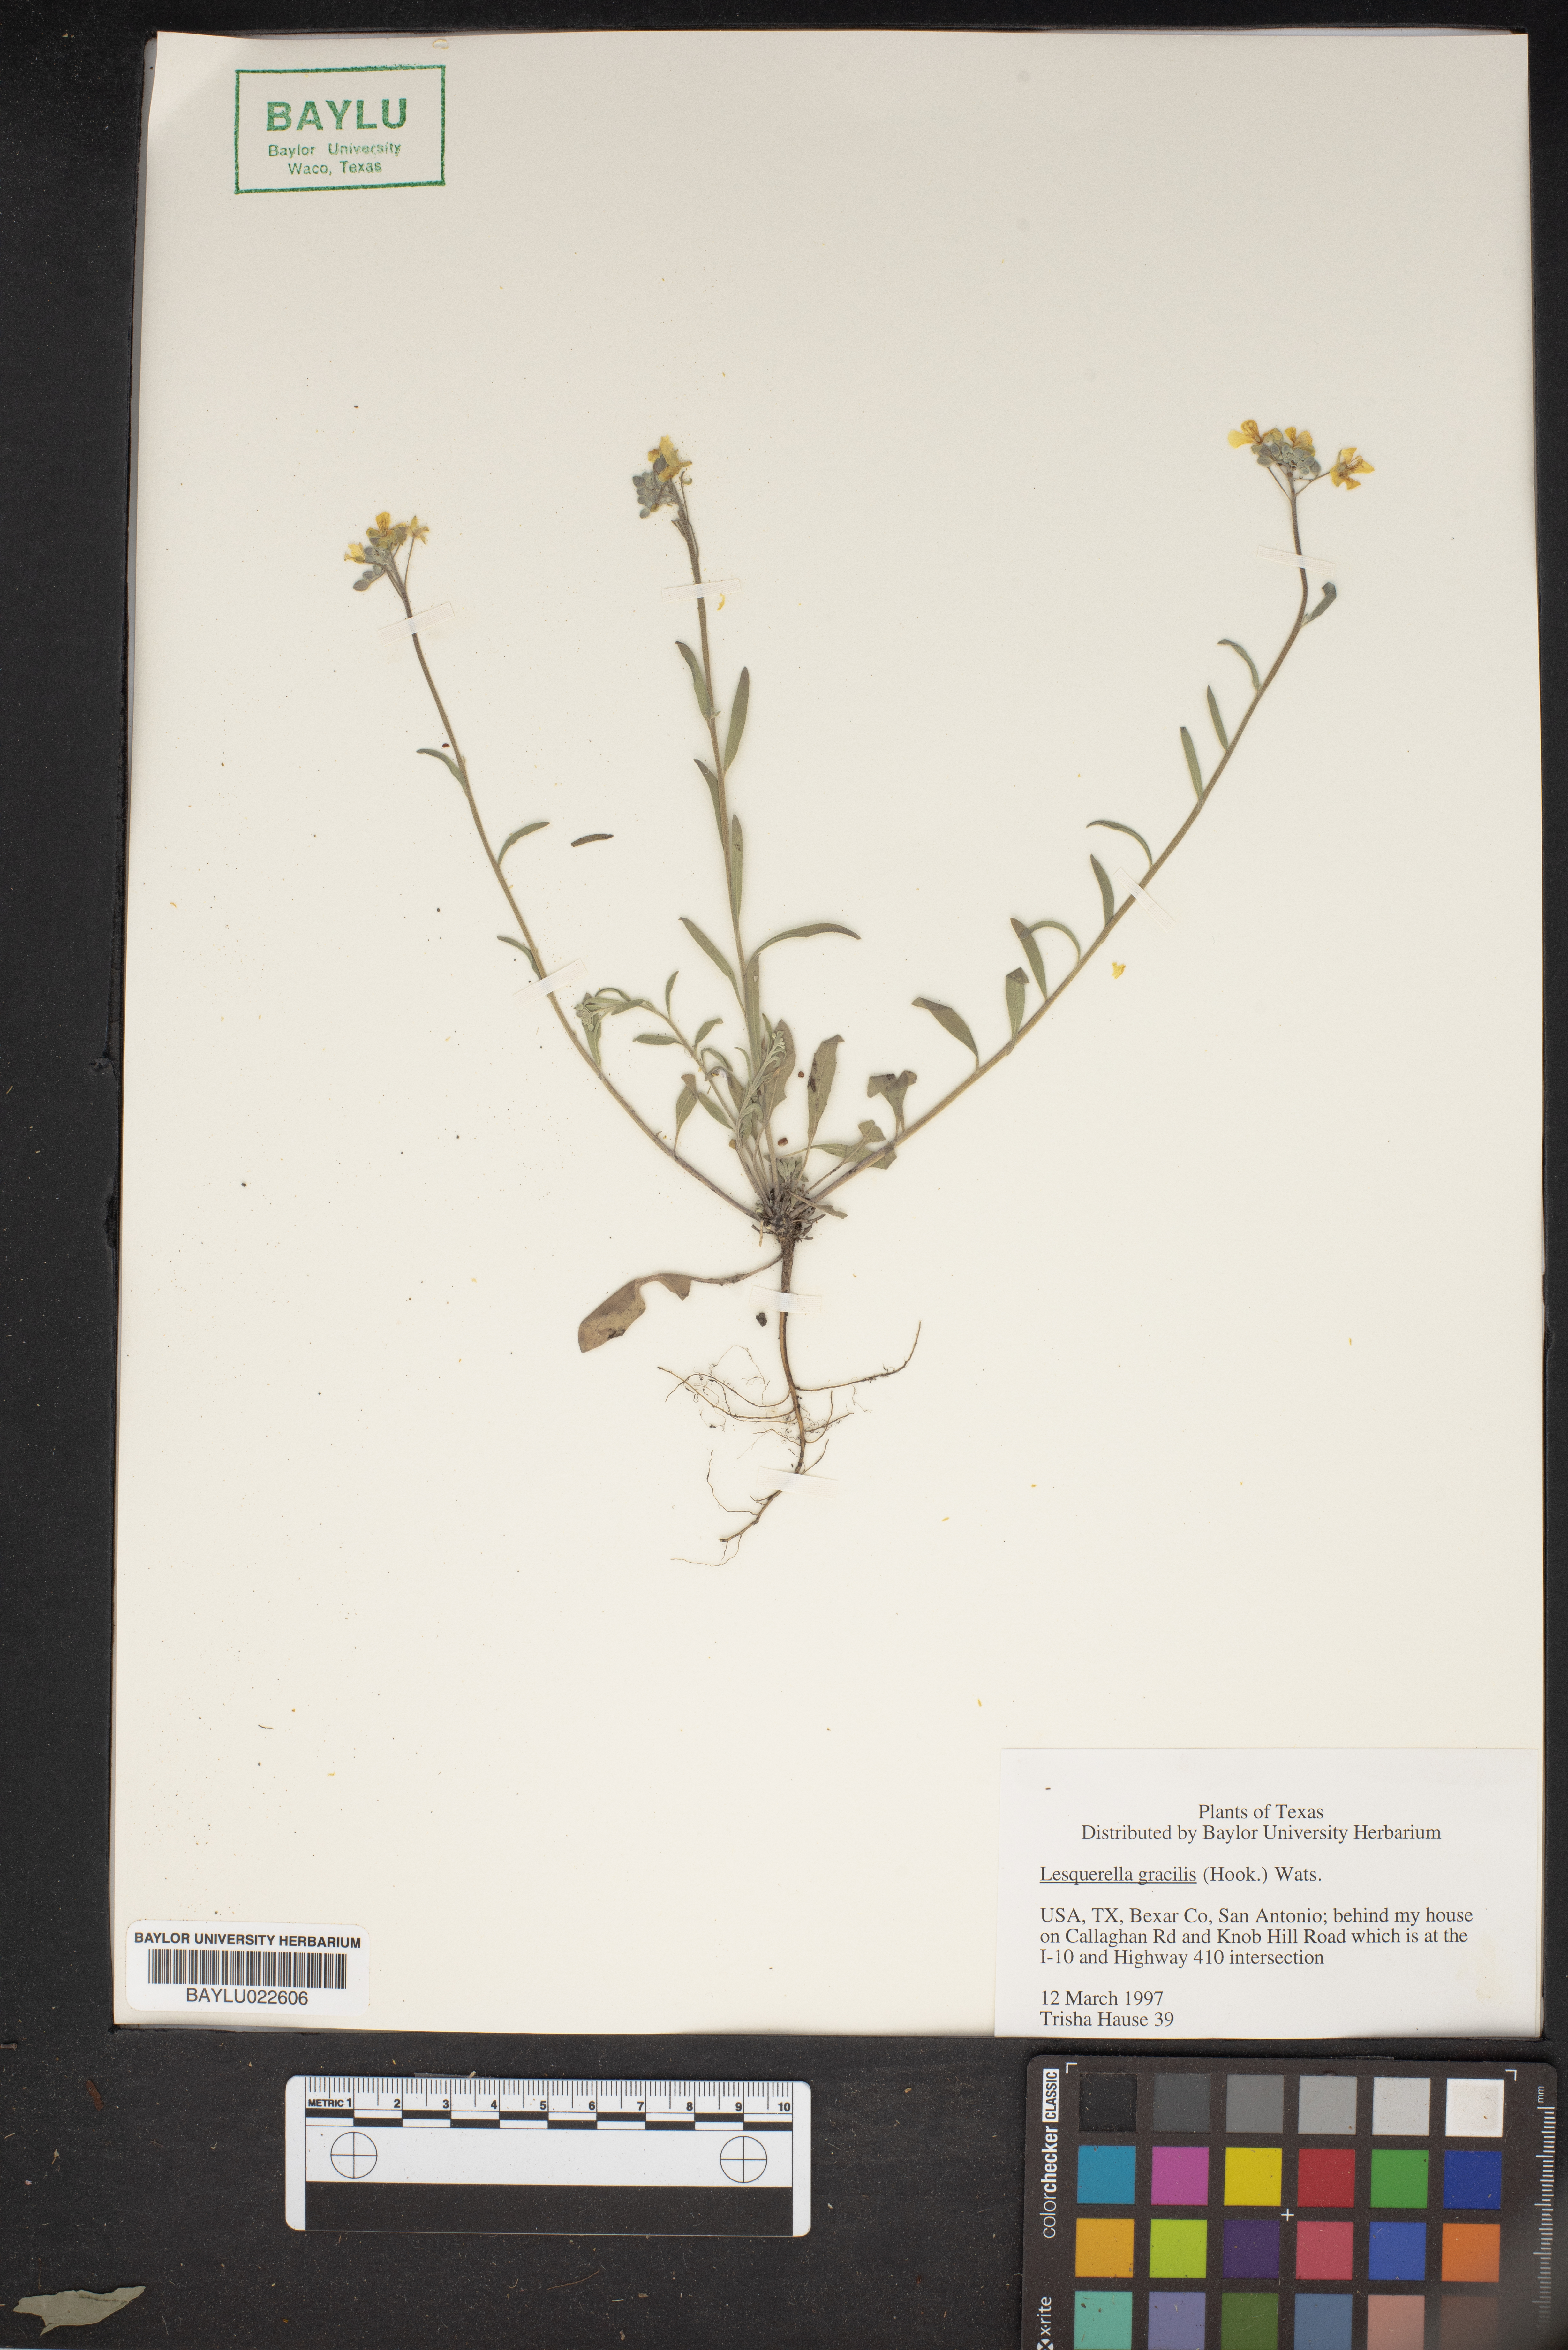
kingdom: Plantae
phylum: Tracheophyta
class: Magnoliopsida
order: Brassicales
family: Brassicaceae
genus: Physaria
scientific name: Physaria gracilis
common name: Spreading bladderpod
